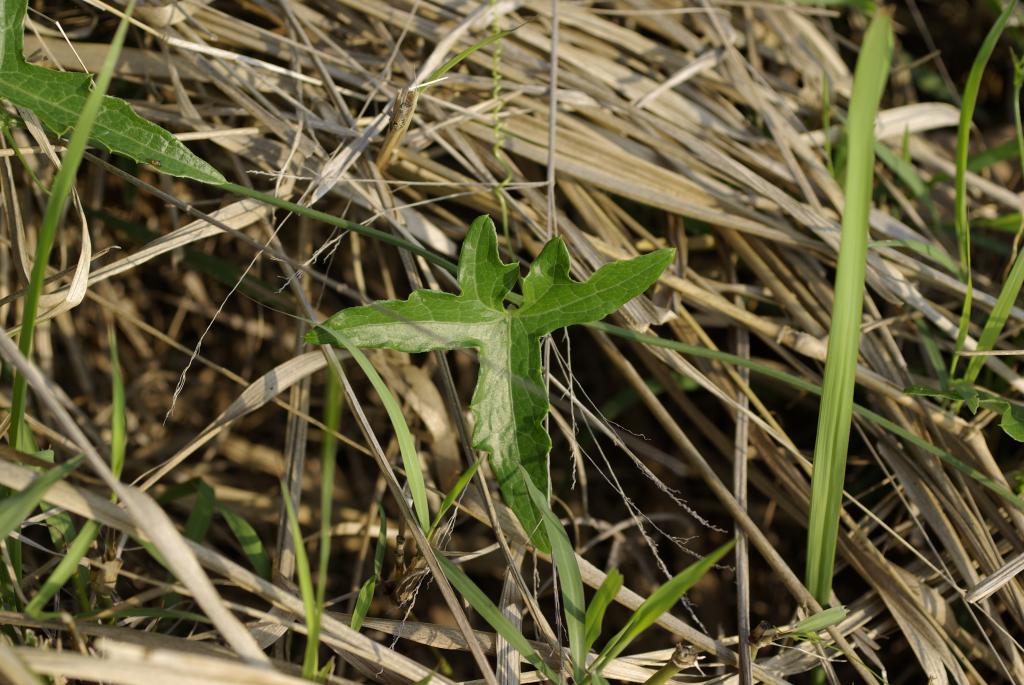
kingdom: Plantae
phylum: Tracheophyta
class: Magnoliopsida
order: Cucurbitales
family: Cucurbitaceae
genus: Solena
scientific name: Solena amplexicaulis
